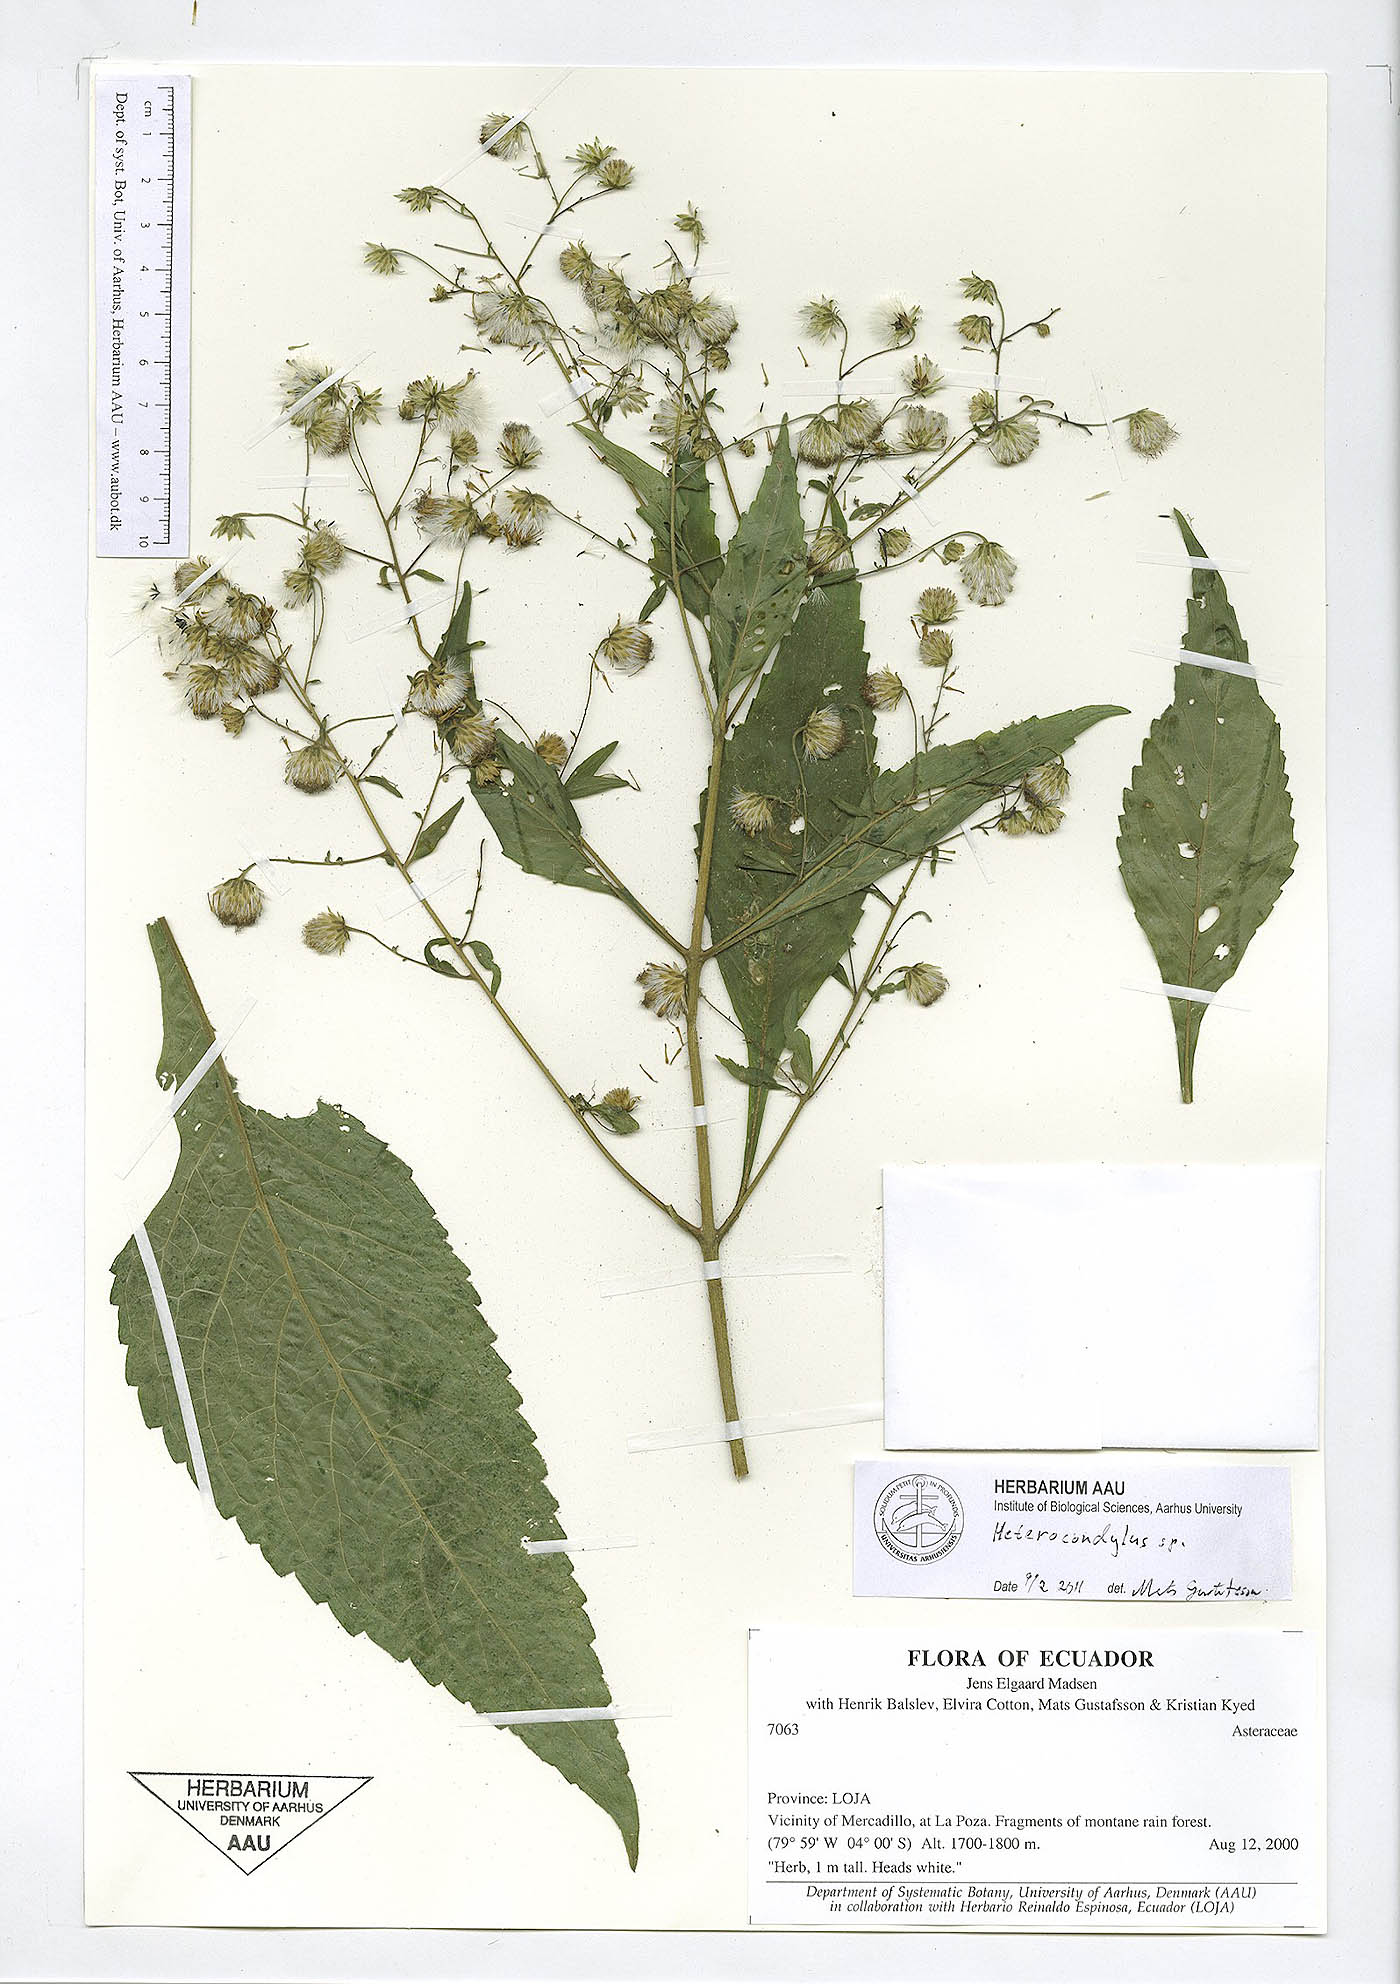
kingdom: Plantae
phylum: Tracheophyta
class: Magnoliopsida
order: Asterales
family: Asteraceae
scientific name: Asteraceae
